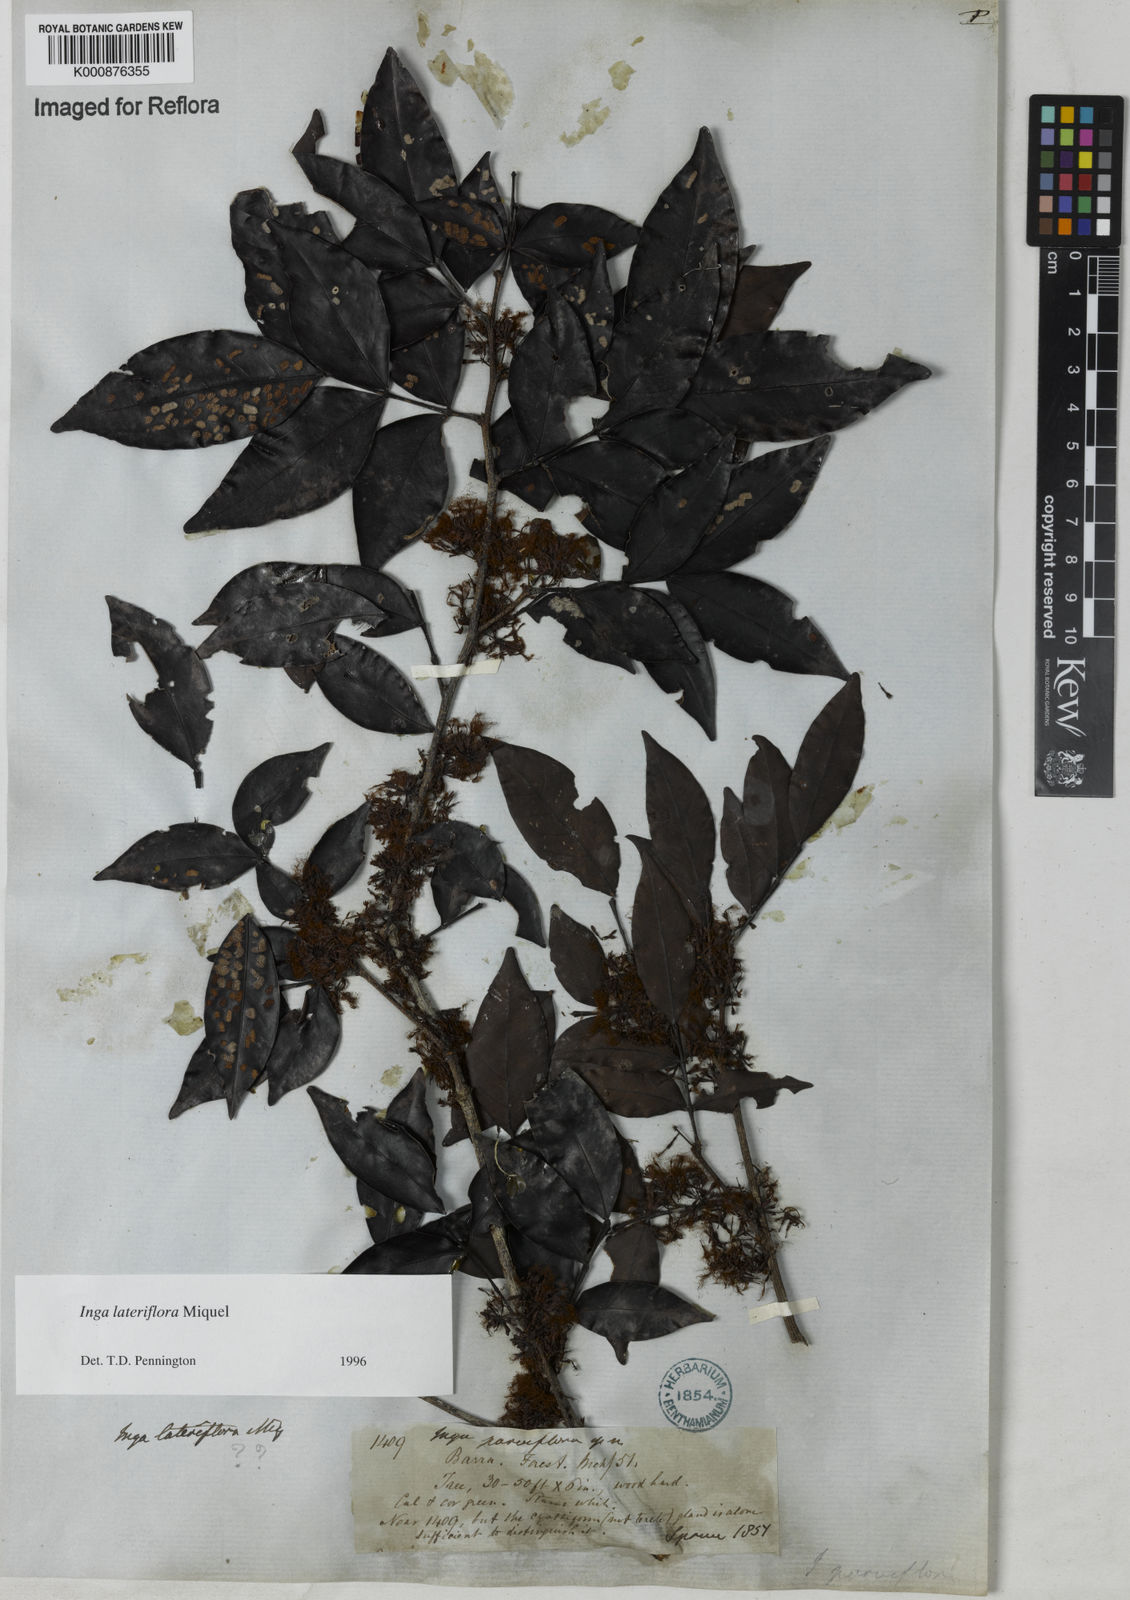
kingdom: Plantae
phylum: Tracheophyta
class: Magnoliopsida
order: Fabales
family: Fabaceae
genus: Inga
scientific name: Inga lateriflora
